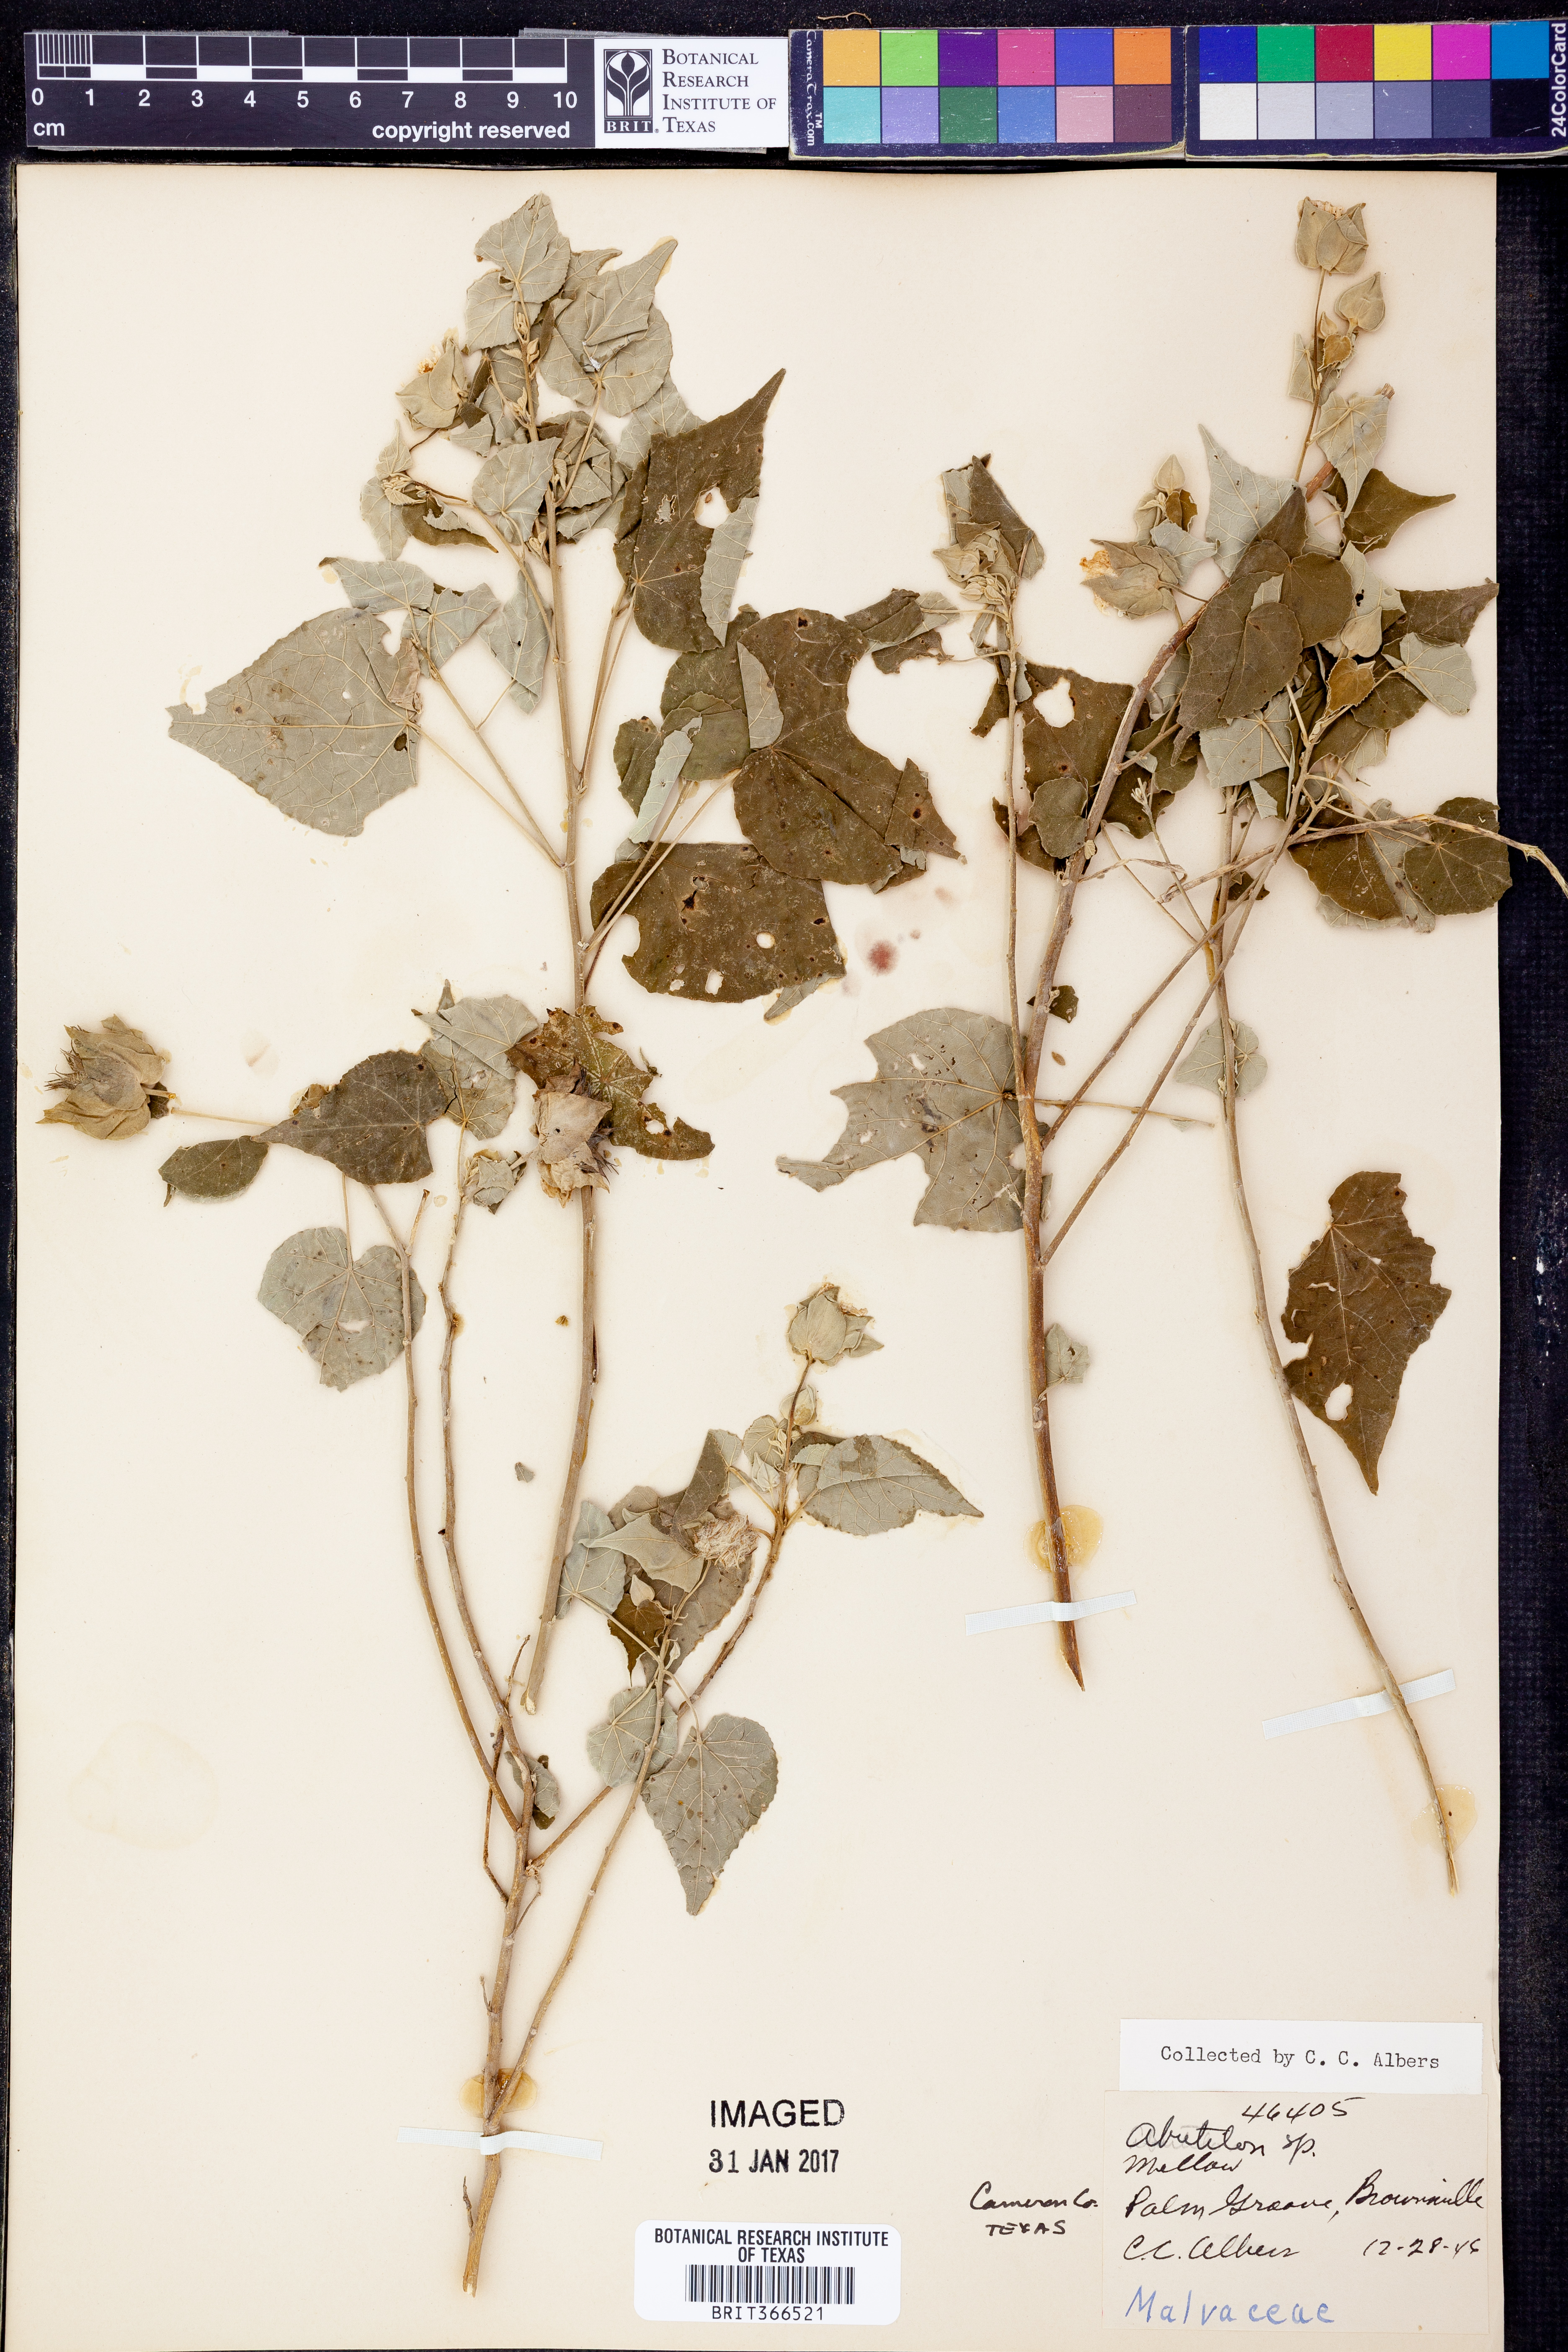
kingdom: Plantae
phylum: Tracheophyta
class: Magnoliopsida
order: Malvales
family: Malvaceae
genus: Abutilon
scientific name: Abutilon
